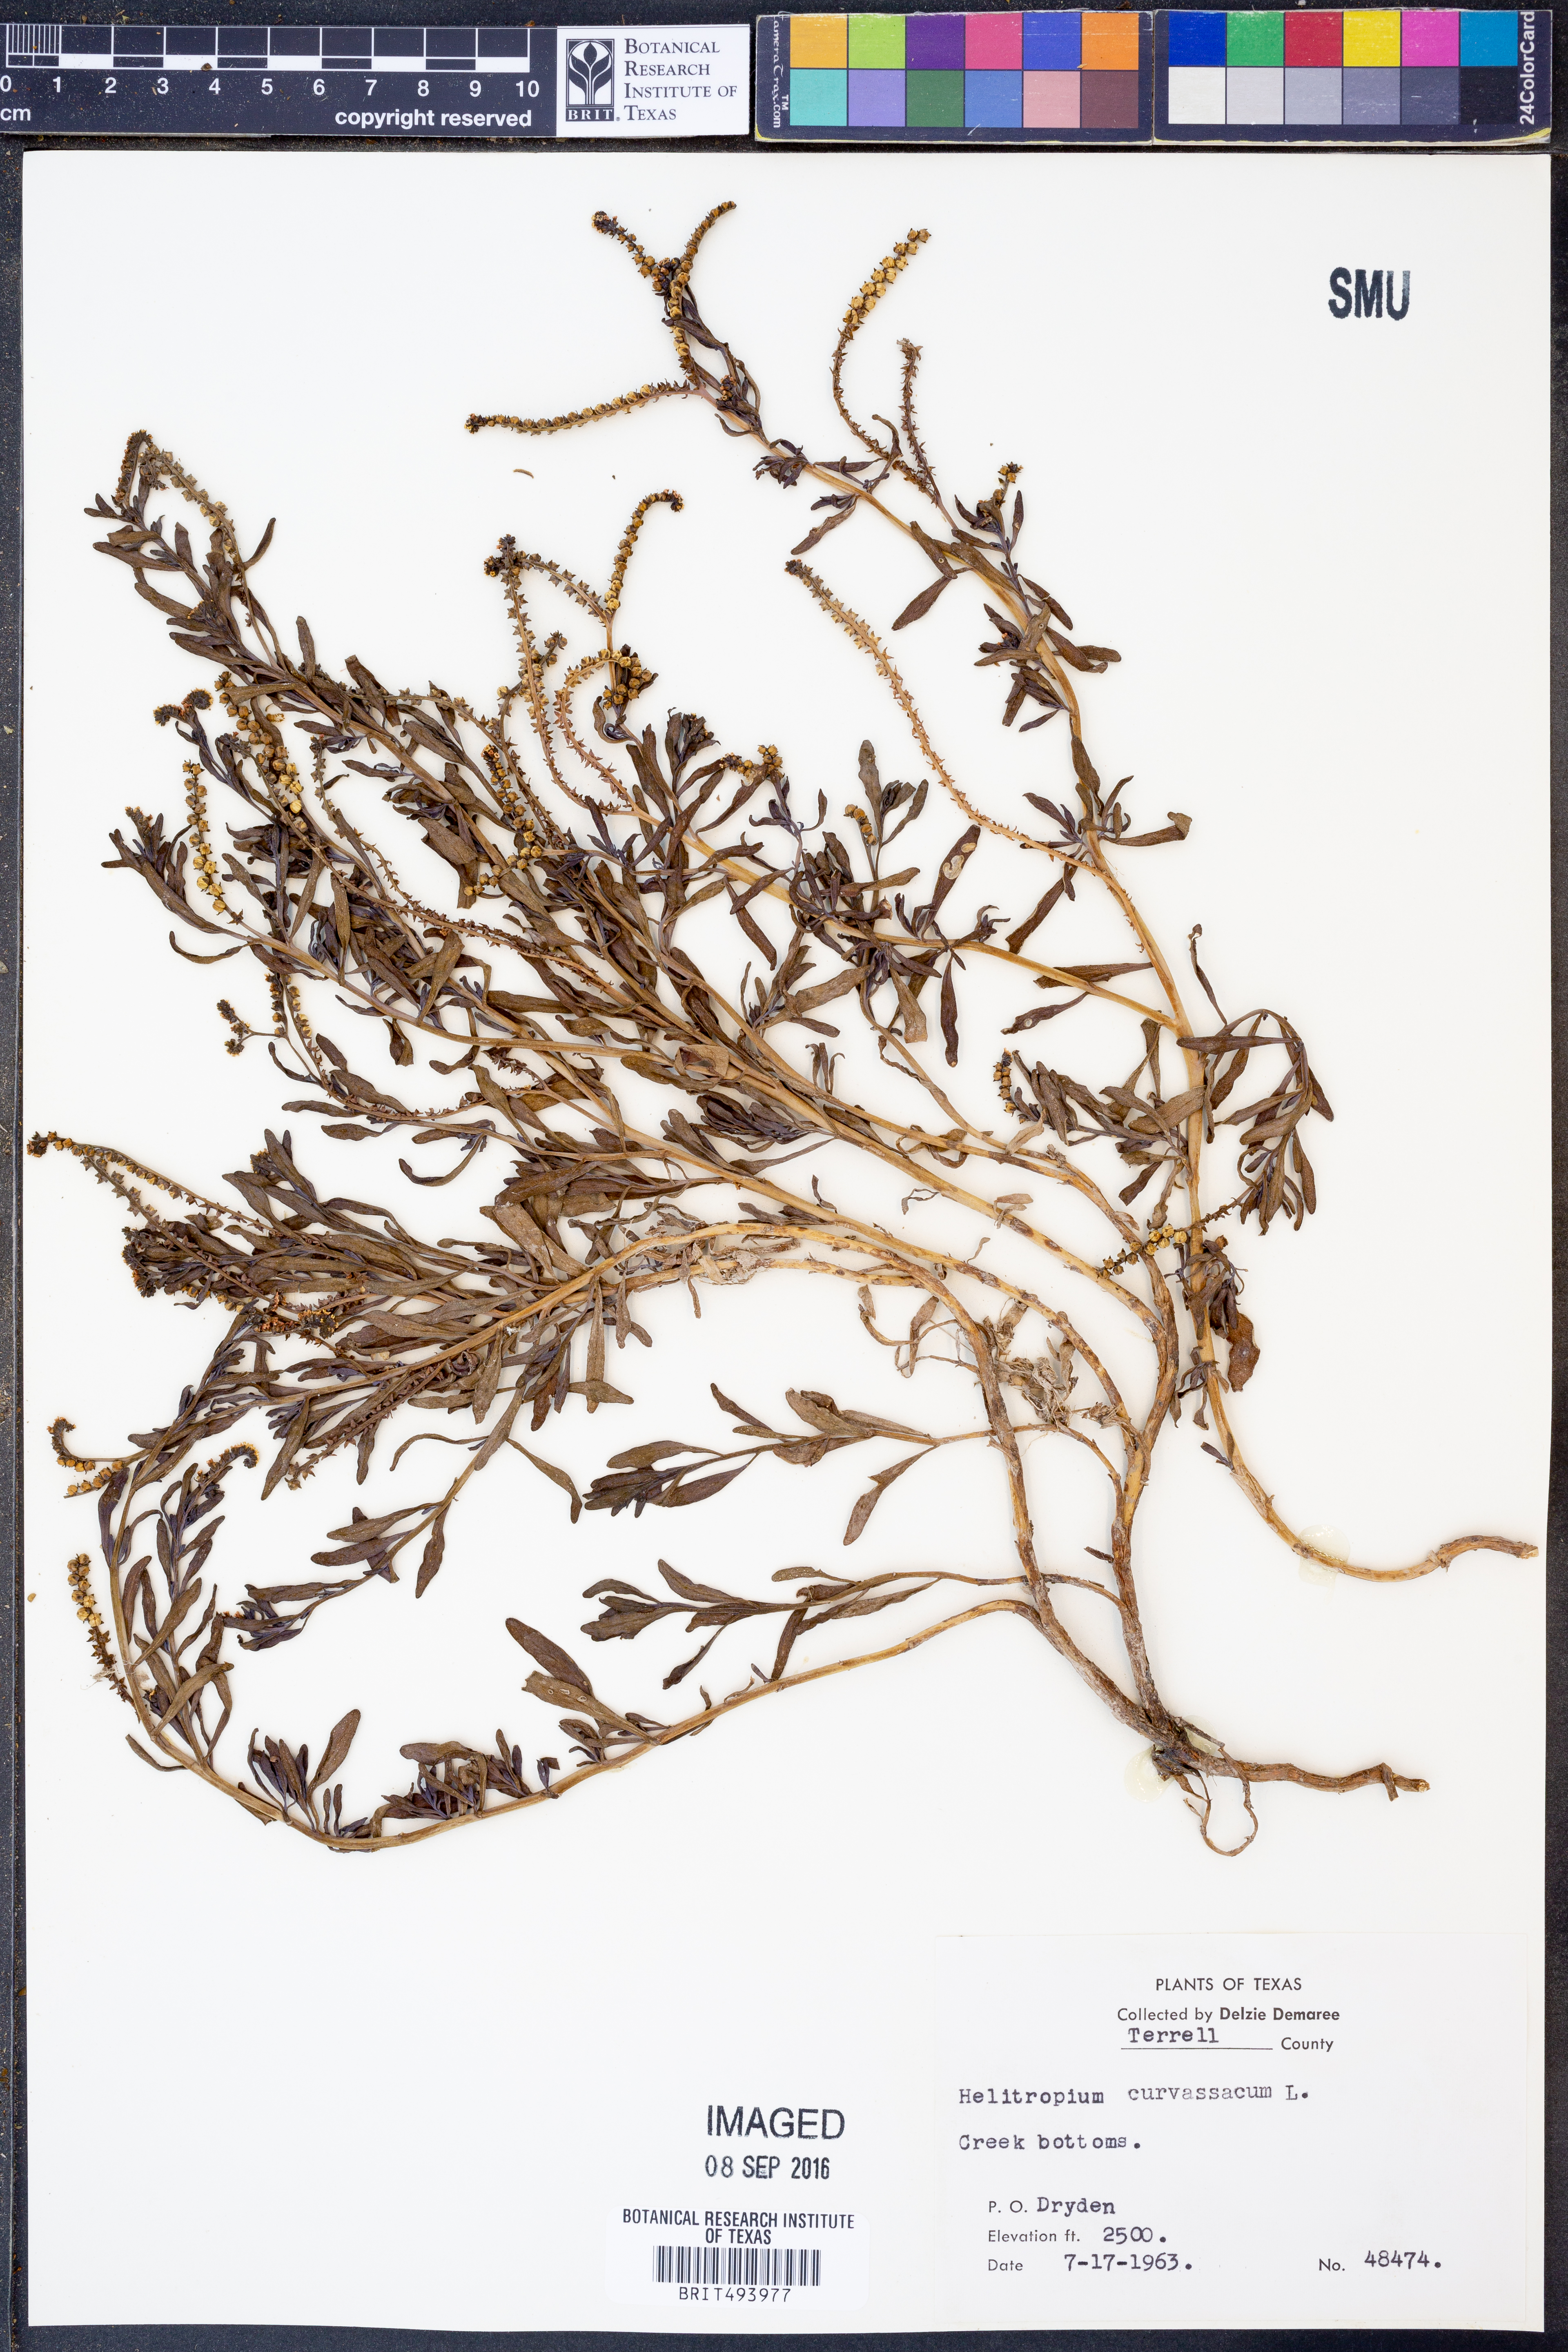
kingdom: Plantae
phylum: Tracheophyta
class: Magnoliopsida
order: Boraginales
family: Heliotropiaceae
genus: Heliotropium
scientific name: Heliotropium curassavicum
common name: Seaside heliotrope
